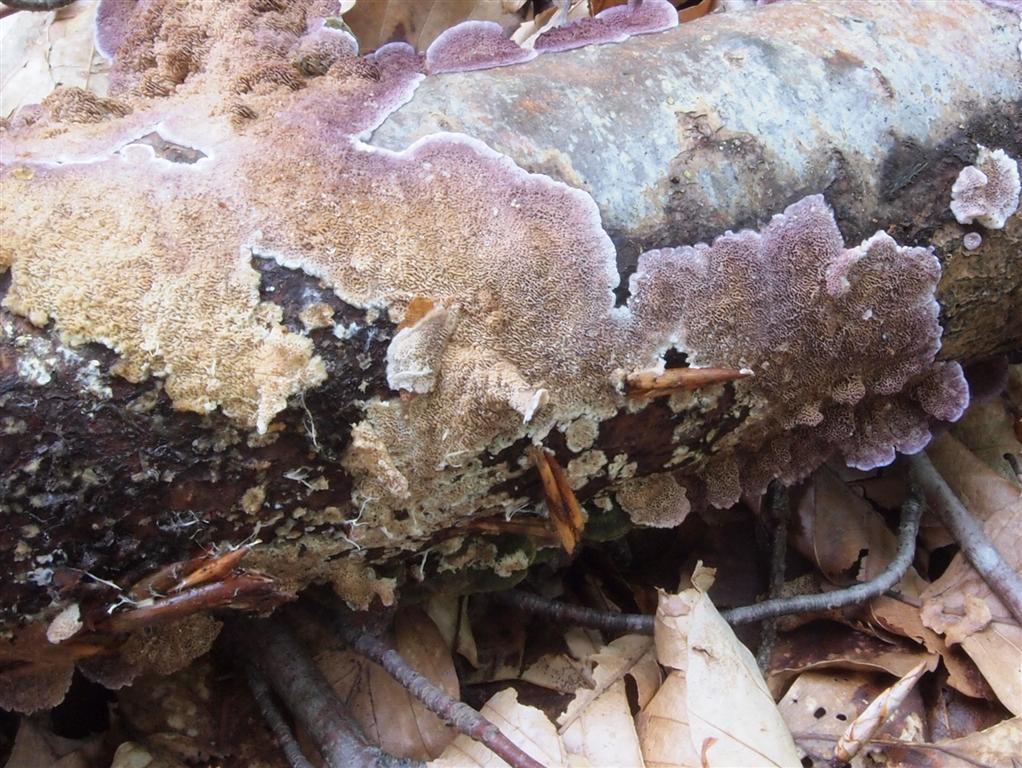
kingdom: Fungi
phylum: Basidiomycota
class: Agaricomycetes
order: Hymenochaetales
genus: Trichaptum
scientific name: Trichaptum abietinum
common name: almindelig violporesvamp
